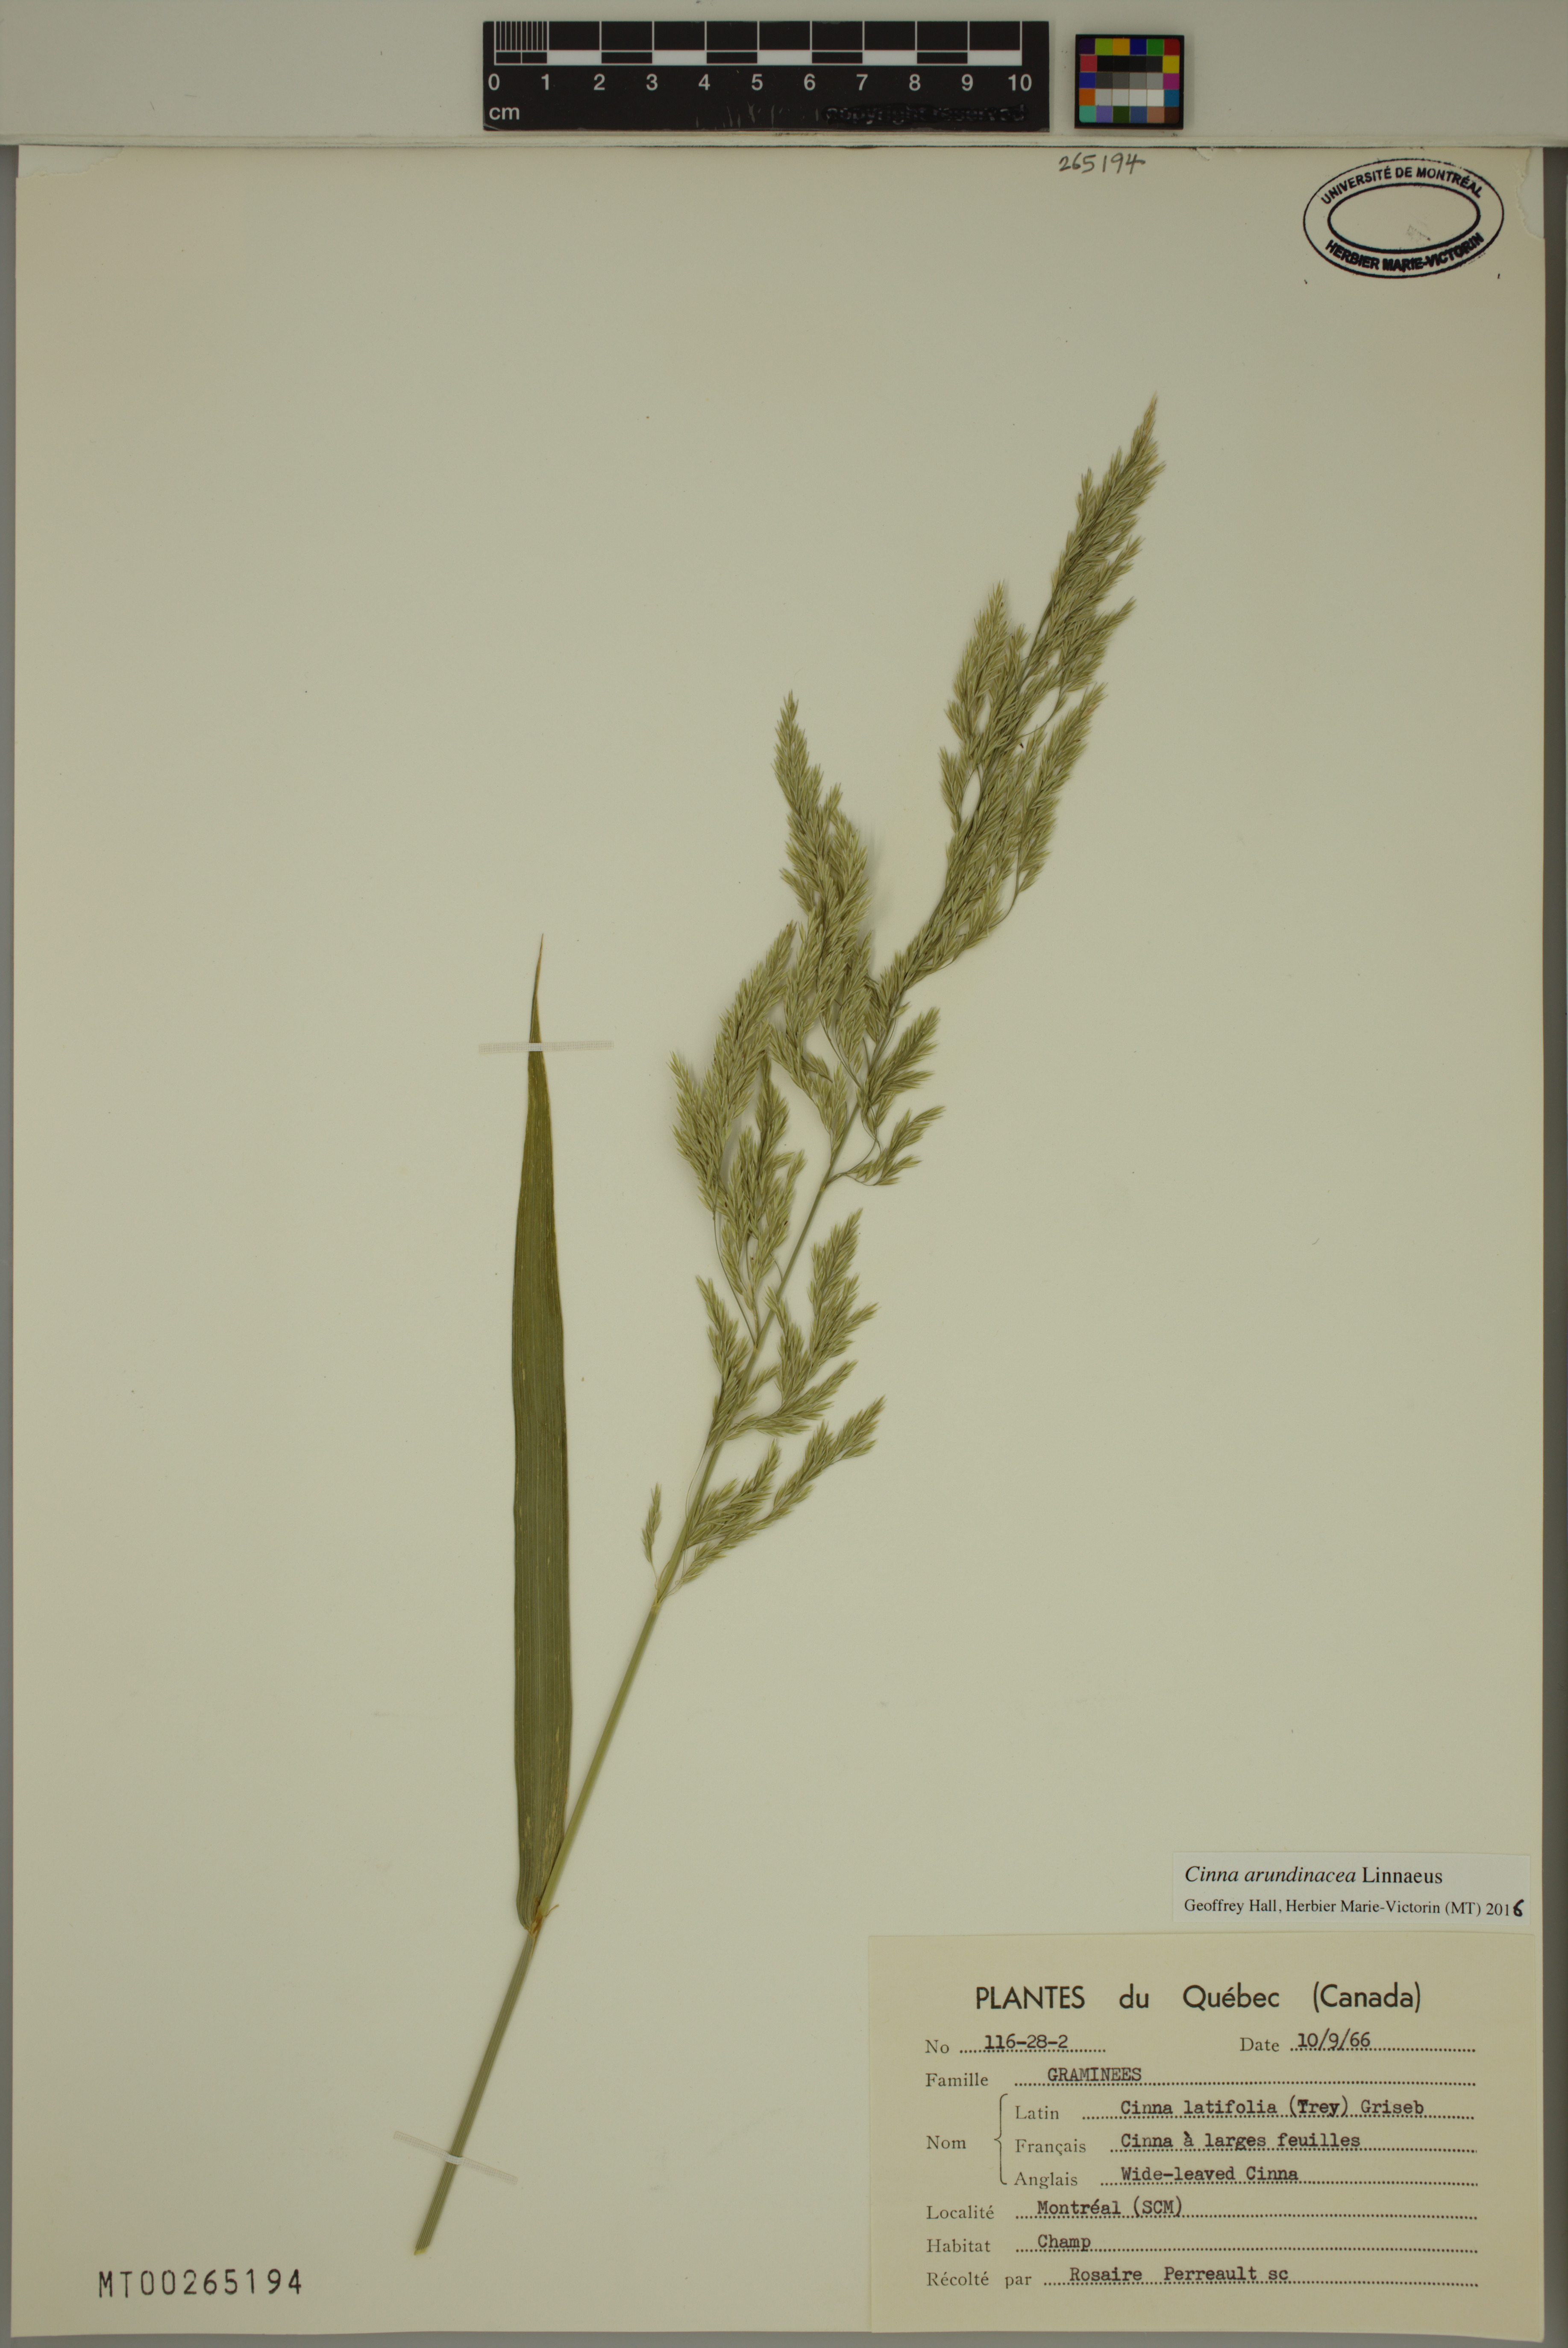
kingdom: Plantae
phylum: Tracheophyta
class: Liliopsida
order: Poales
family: Poaceae
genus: Cinna
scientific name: Cinna arundinacea
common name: Stout woodreed
